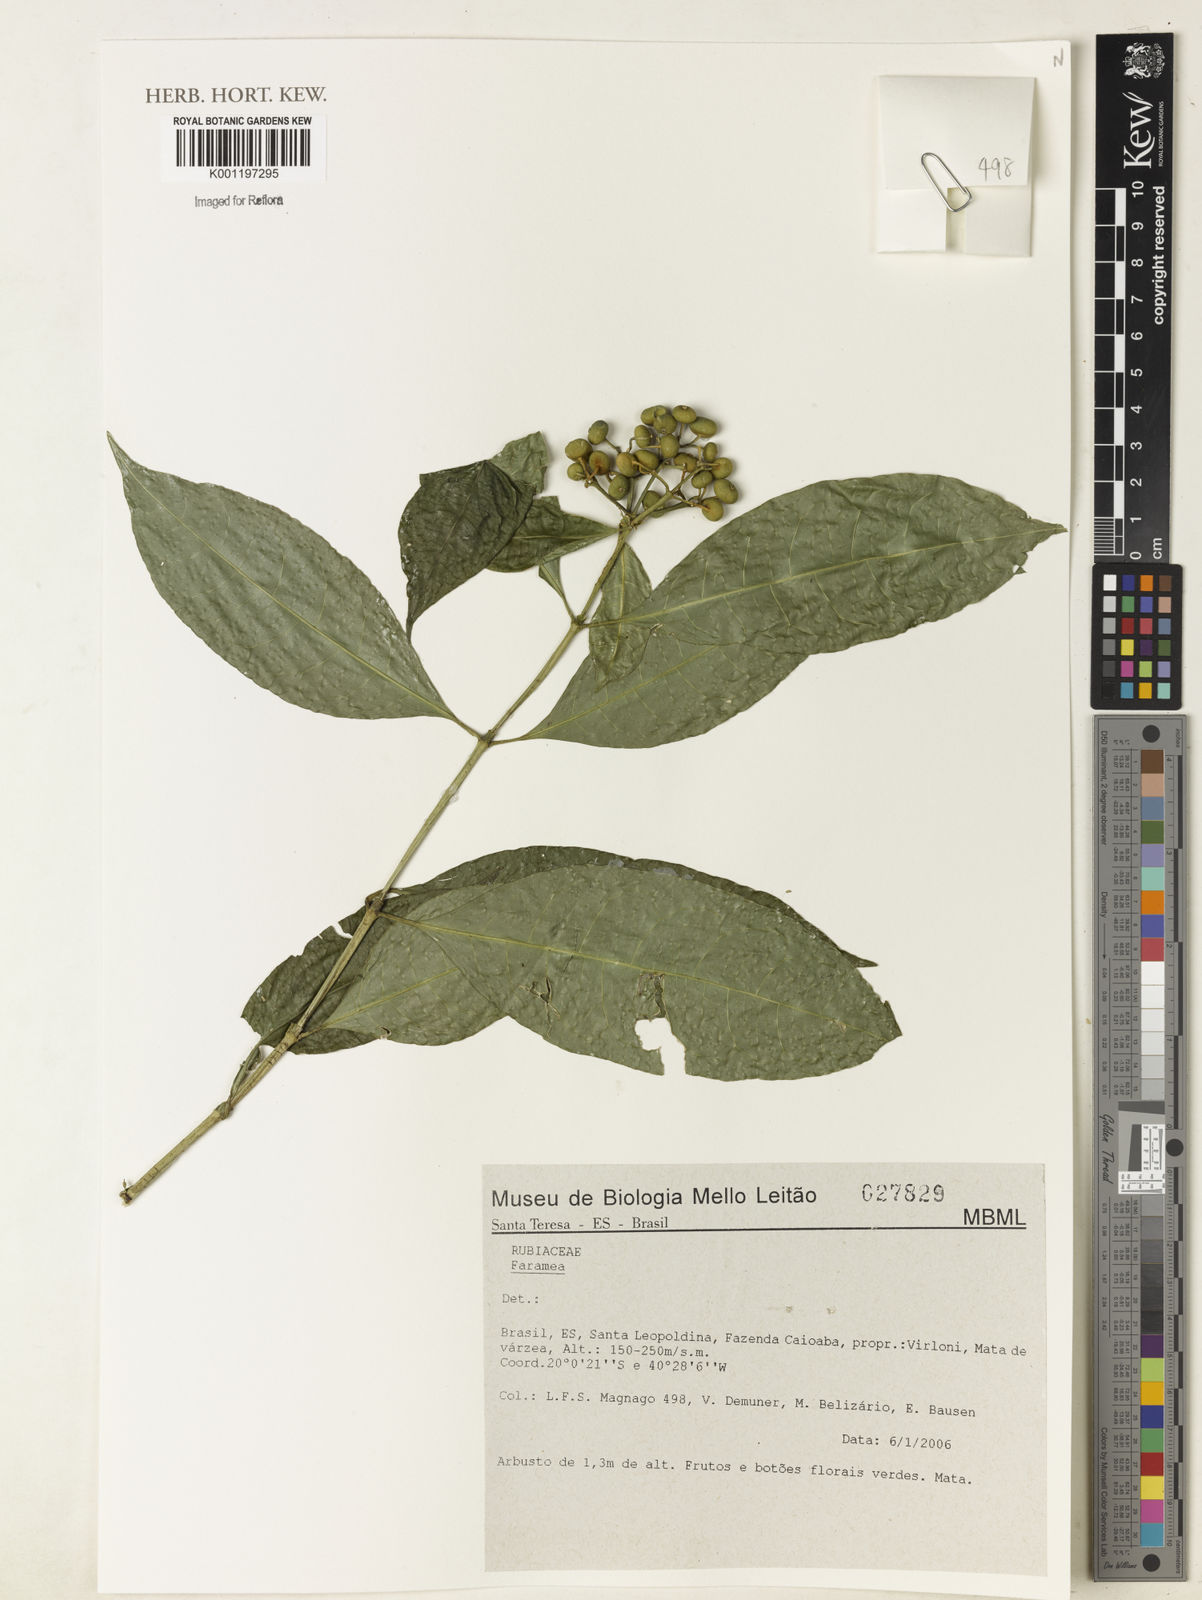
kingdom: Plantae
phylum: Tracheophyta
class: Magnoliopsida
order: Gentianales
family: Rubiaceae
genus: Faramea
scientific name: Faramea
